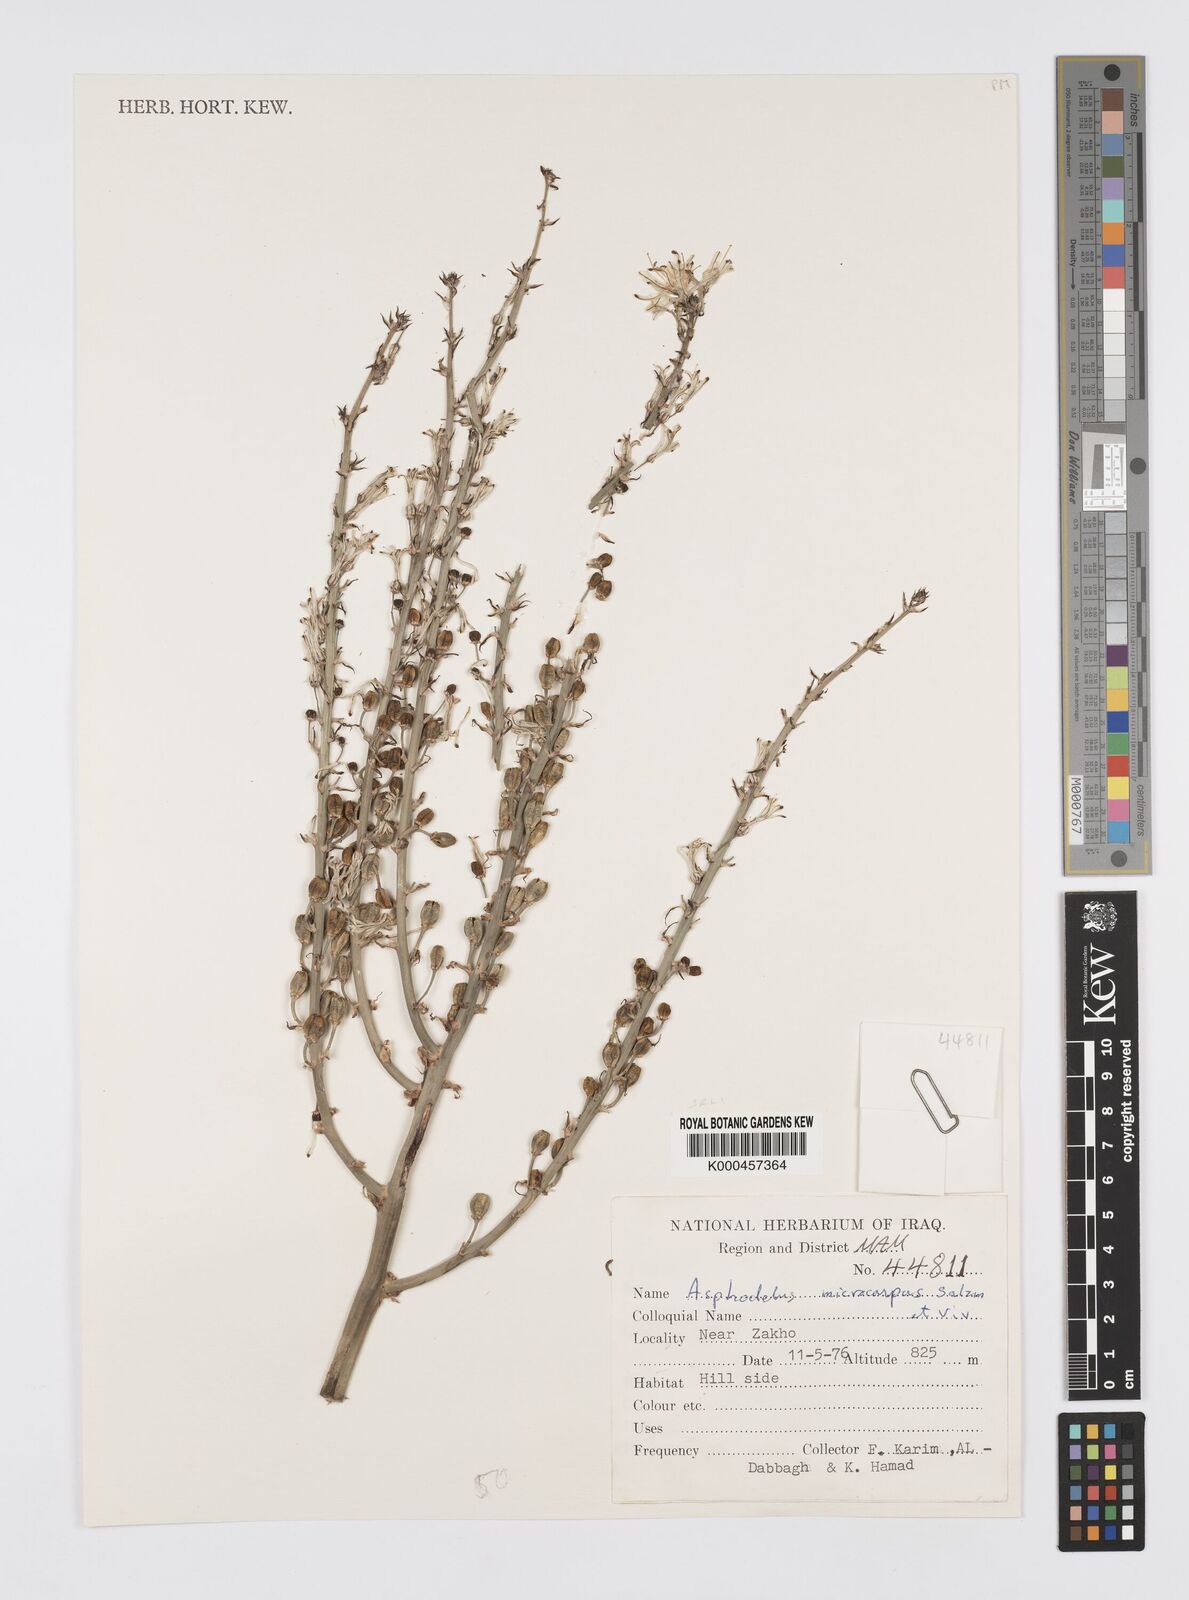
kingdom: Plantae
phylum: Tracheophyta
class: Liliopsida
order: Asparagales
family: Asphodelaceae
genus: Asphodelus
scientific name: Asphodelus aestivus
